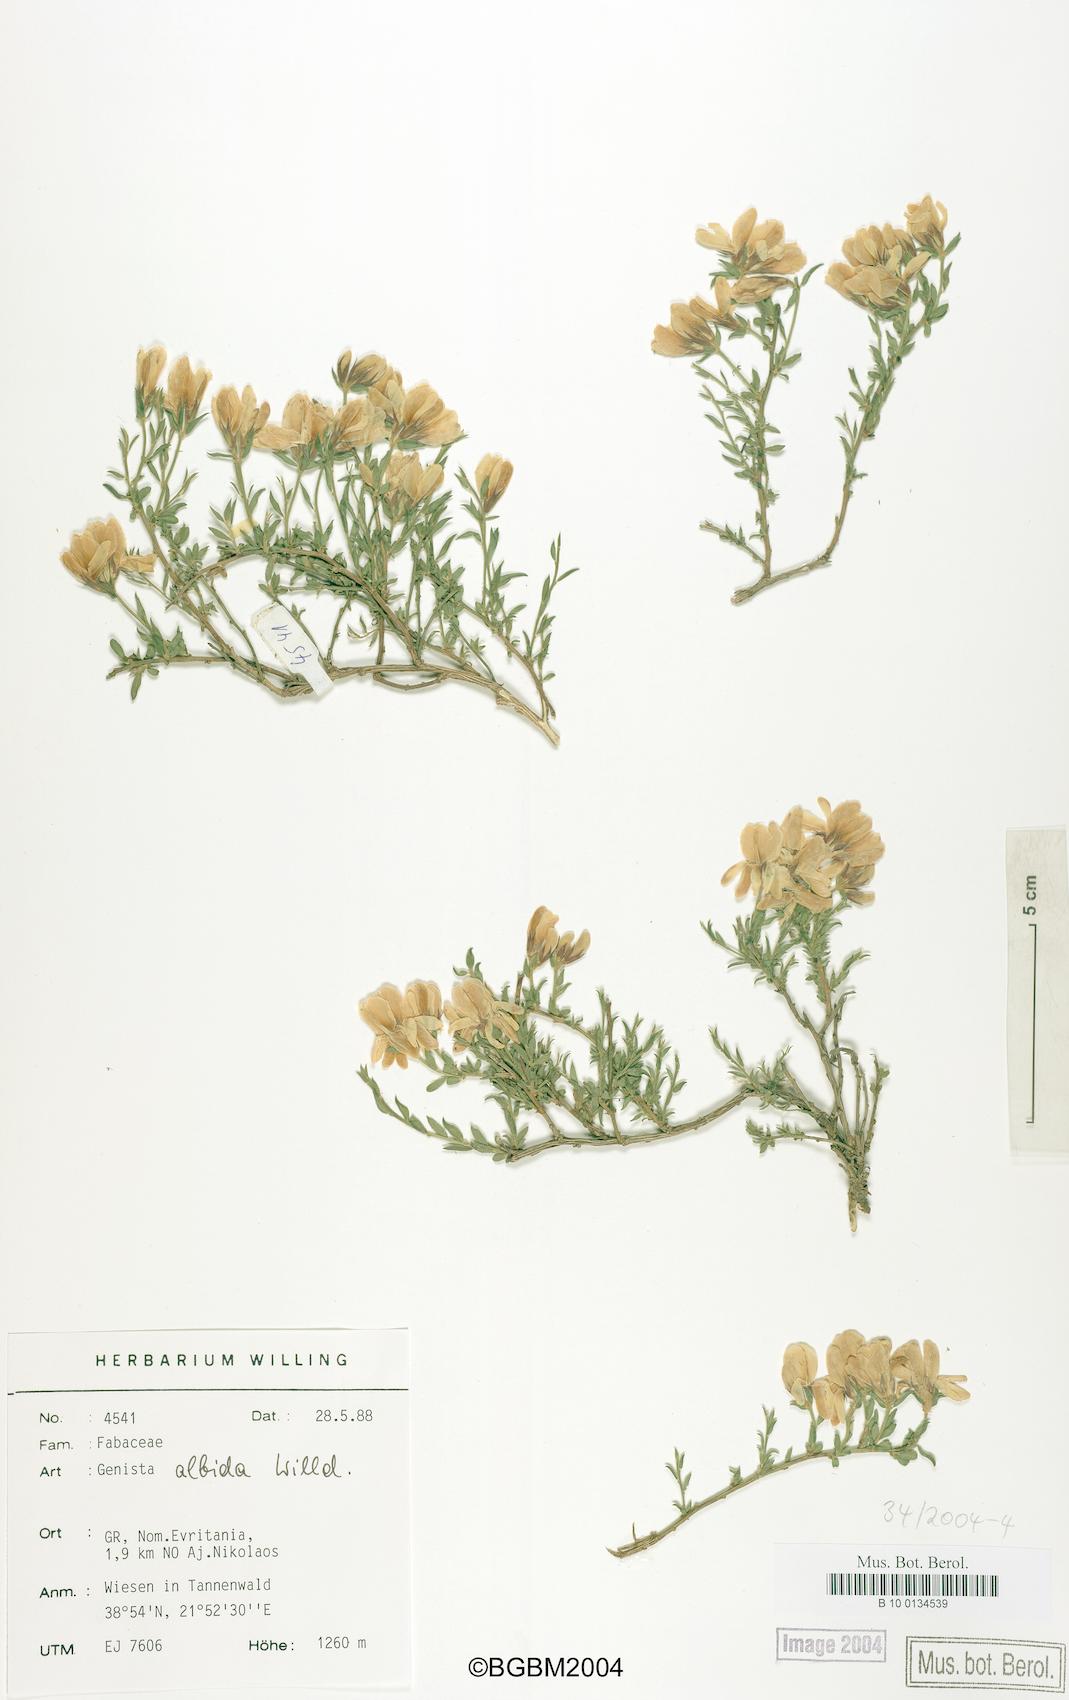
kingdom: Plantae
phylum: Tracheophyta
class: Magnoliopsida
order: Fabales
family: Fabaceae
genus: Genista
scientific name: Genista albida
